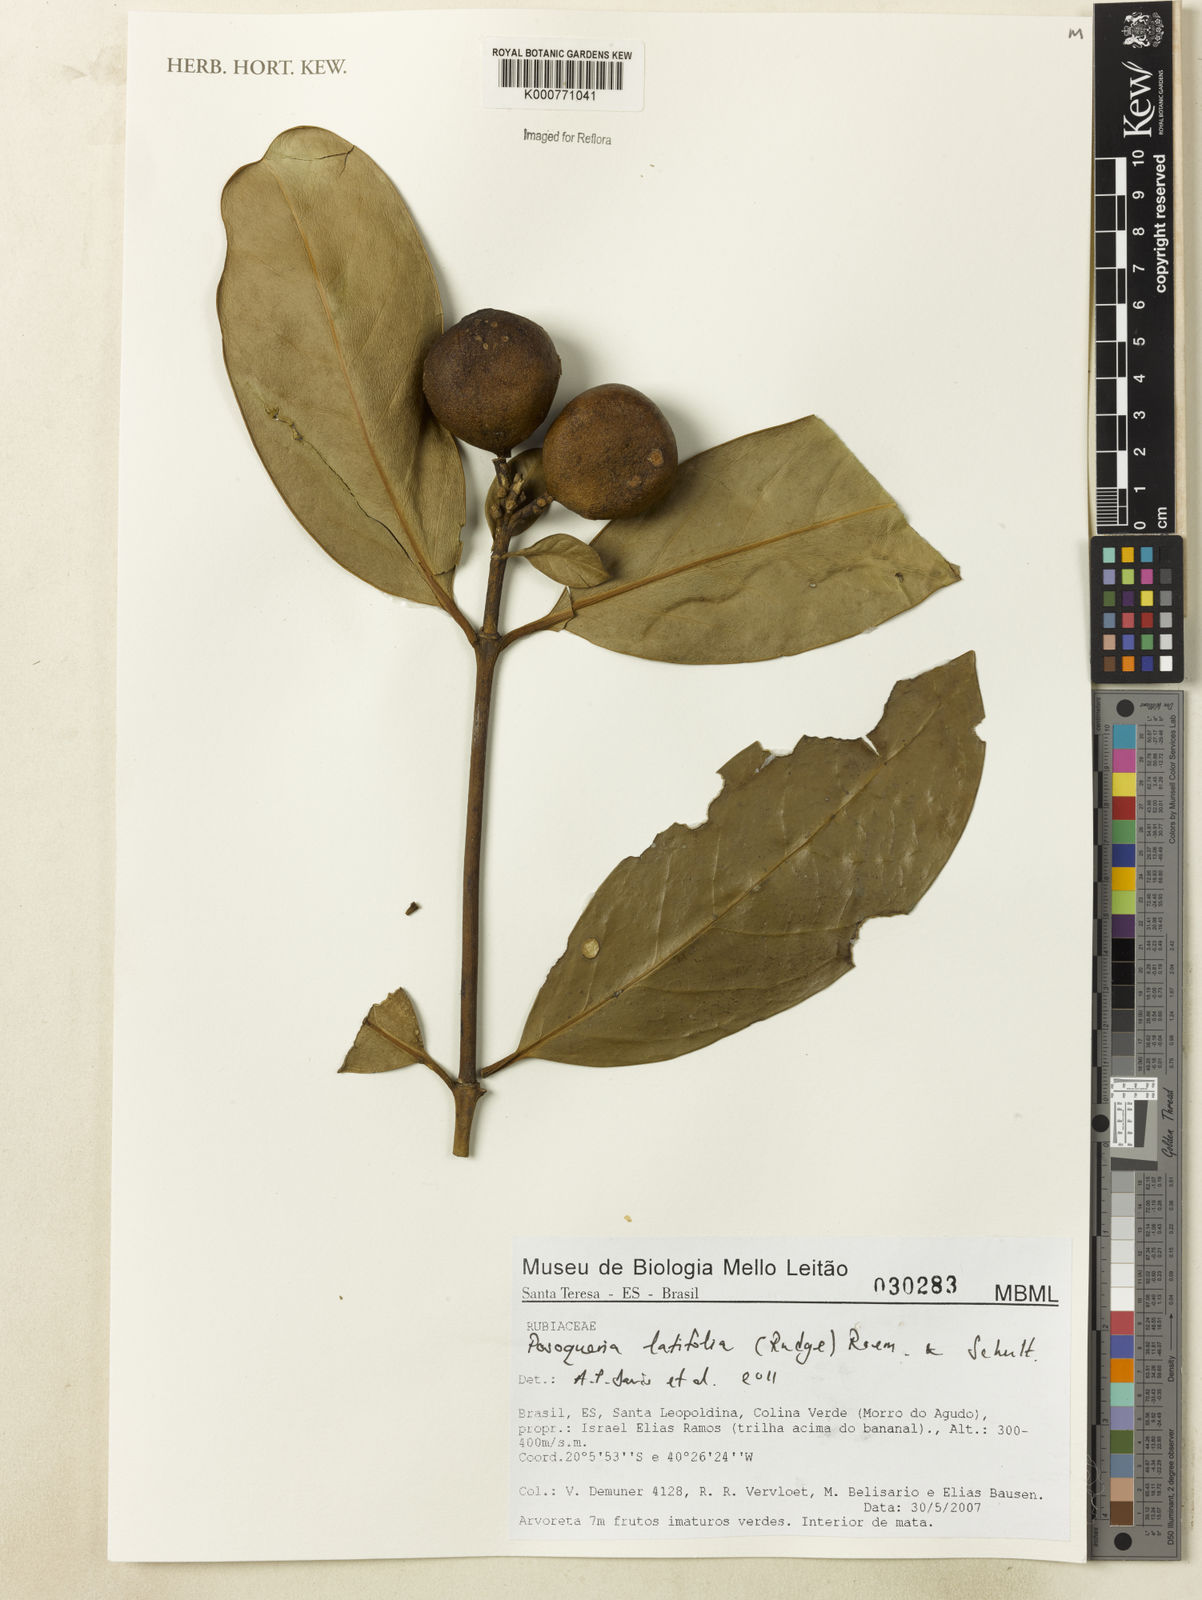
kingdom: Plantae
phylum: Tracheophyta
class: Magnoliopsida
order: Gentianales
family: Rubiaceae
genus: Posoqueria
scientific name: Posoqueria latifolia
